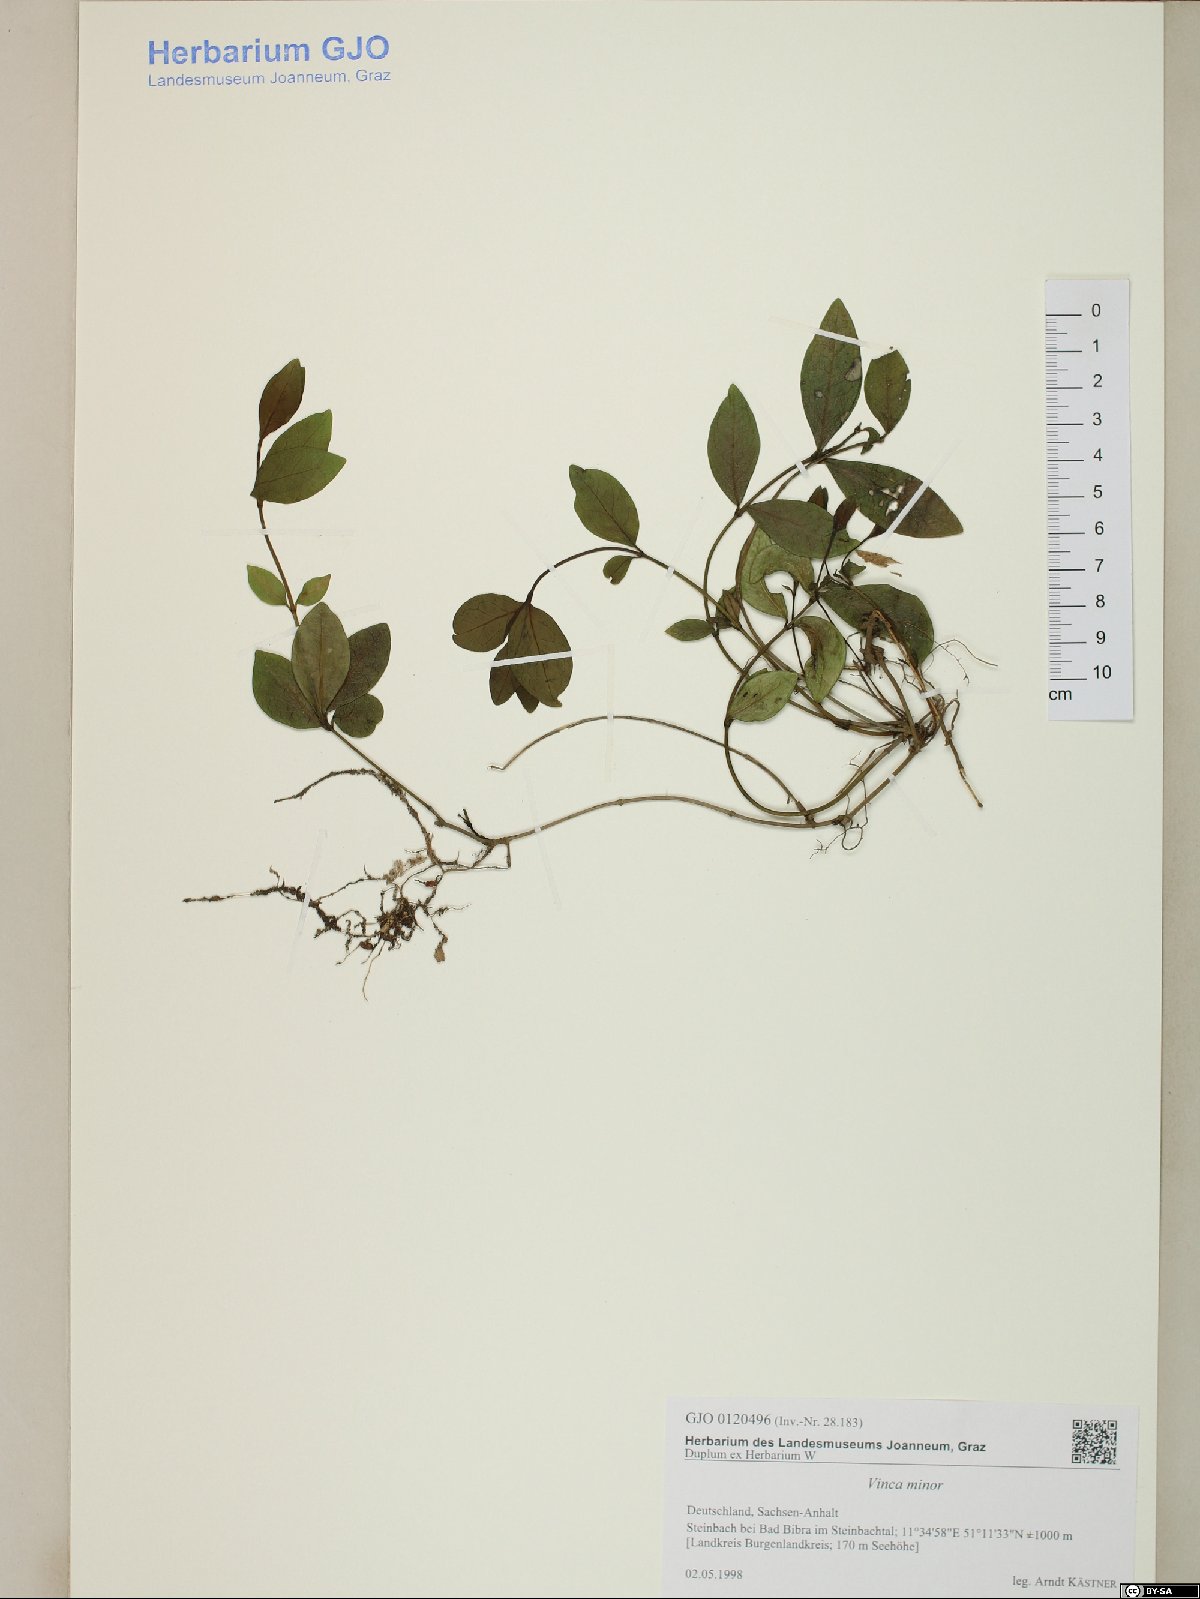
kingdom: Plantae
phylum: Tracheophyta
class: Magnoliopsida
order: Gentianales
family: Apocynaceae
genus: Vinca
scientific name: Vinca minor
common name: Lesser periwinkle
